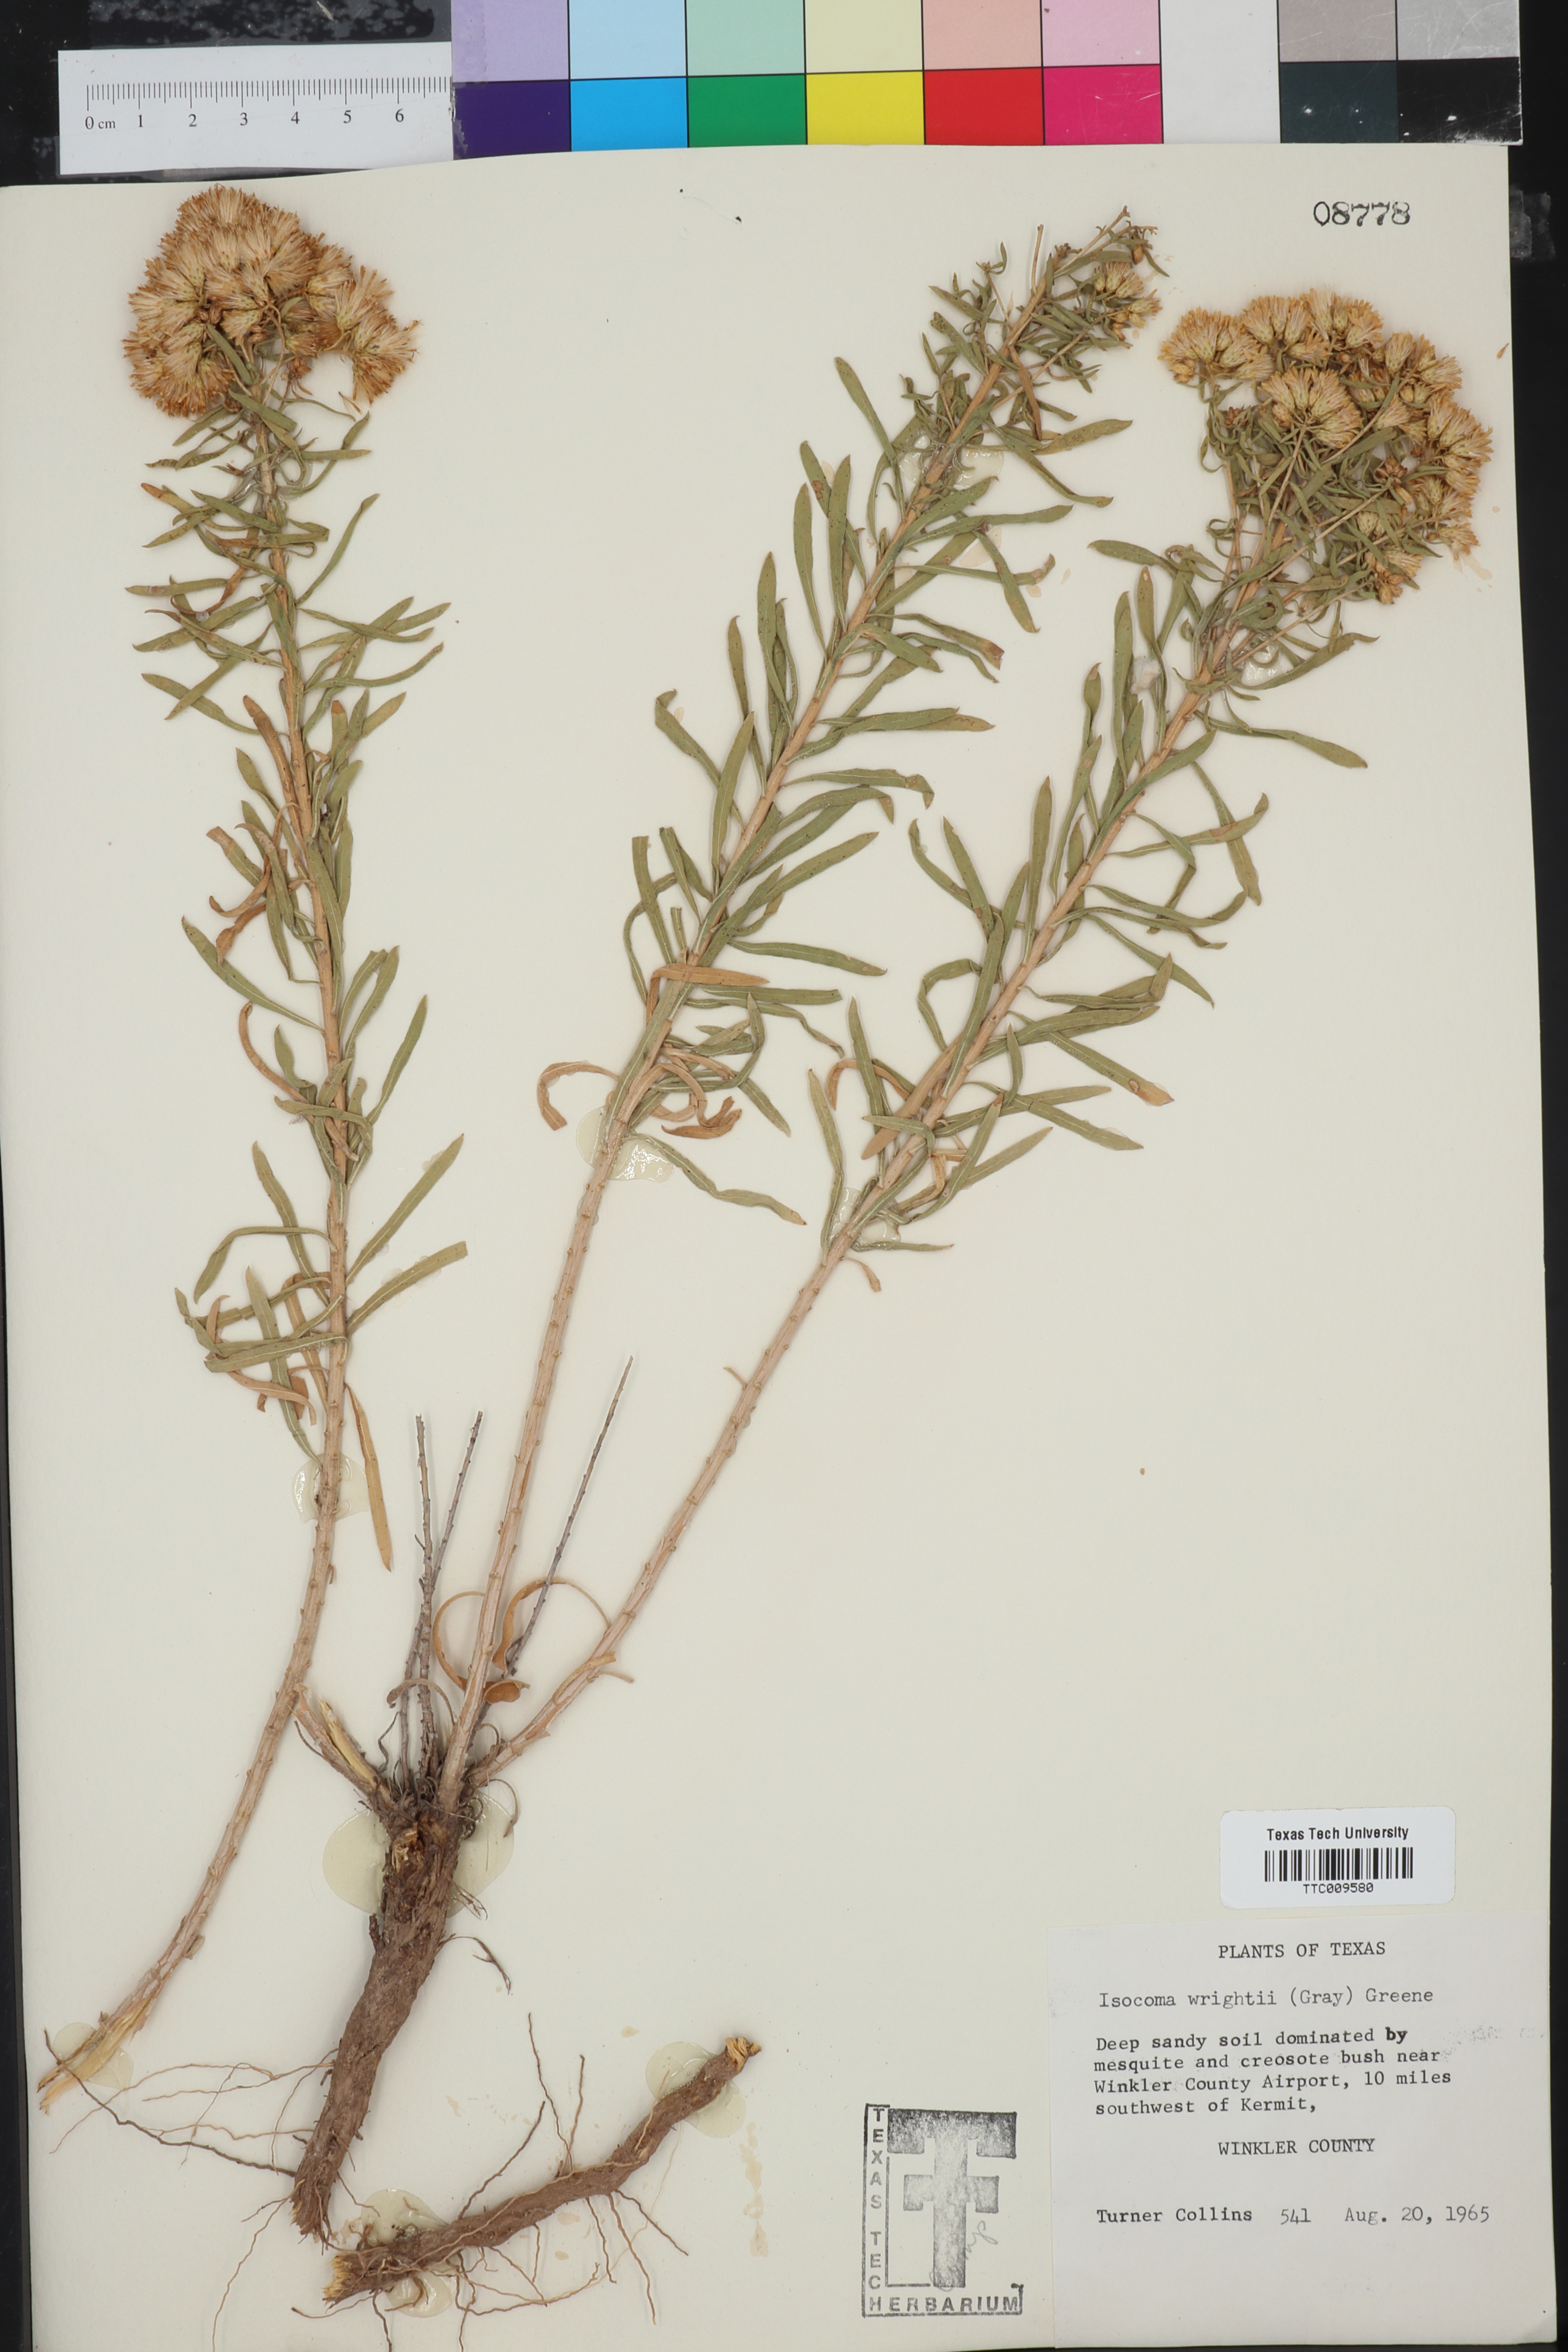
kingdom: Plantae
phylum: Tracheophyta
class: Magnoliopsida
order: Asterales
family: Asteraceae
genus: Isocoma
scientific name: Isocoma pluriflora
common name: Southern jimmyweed
